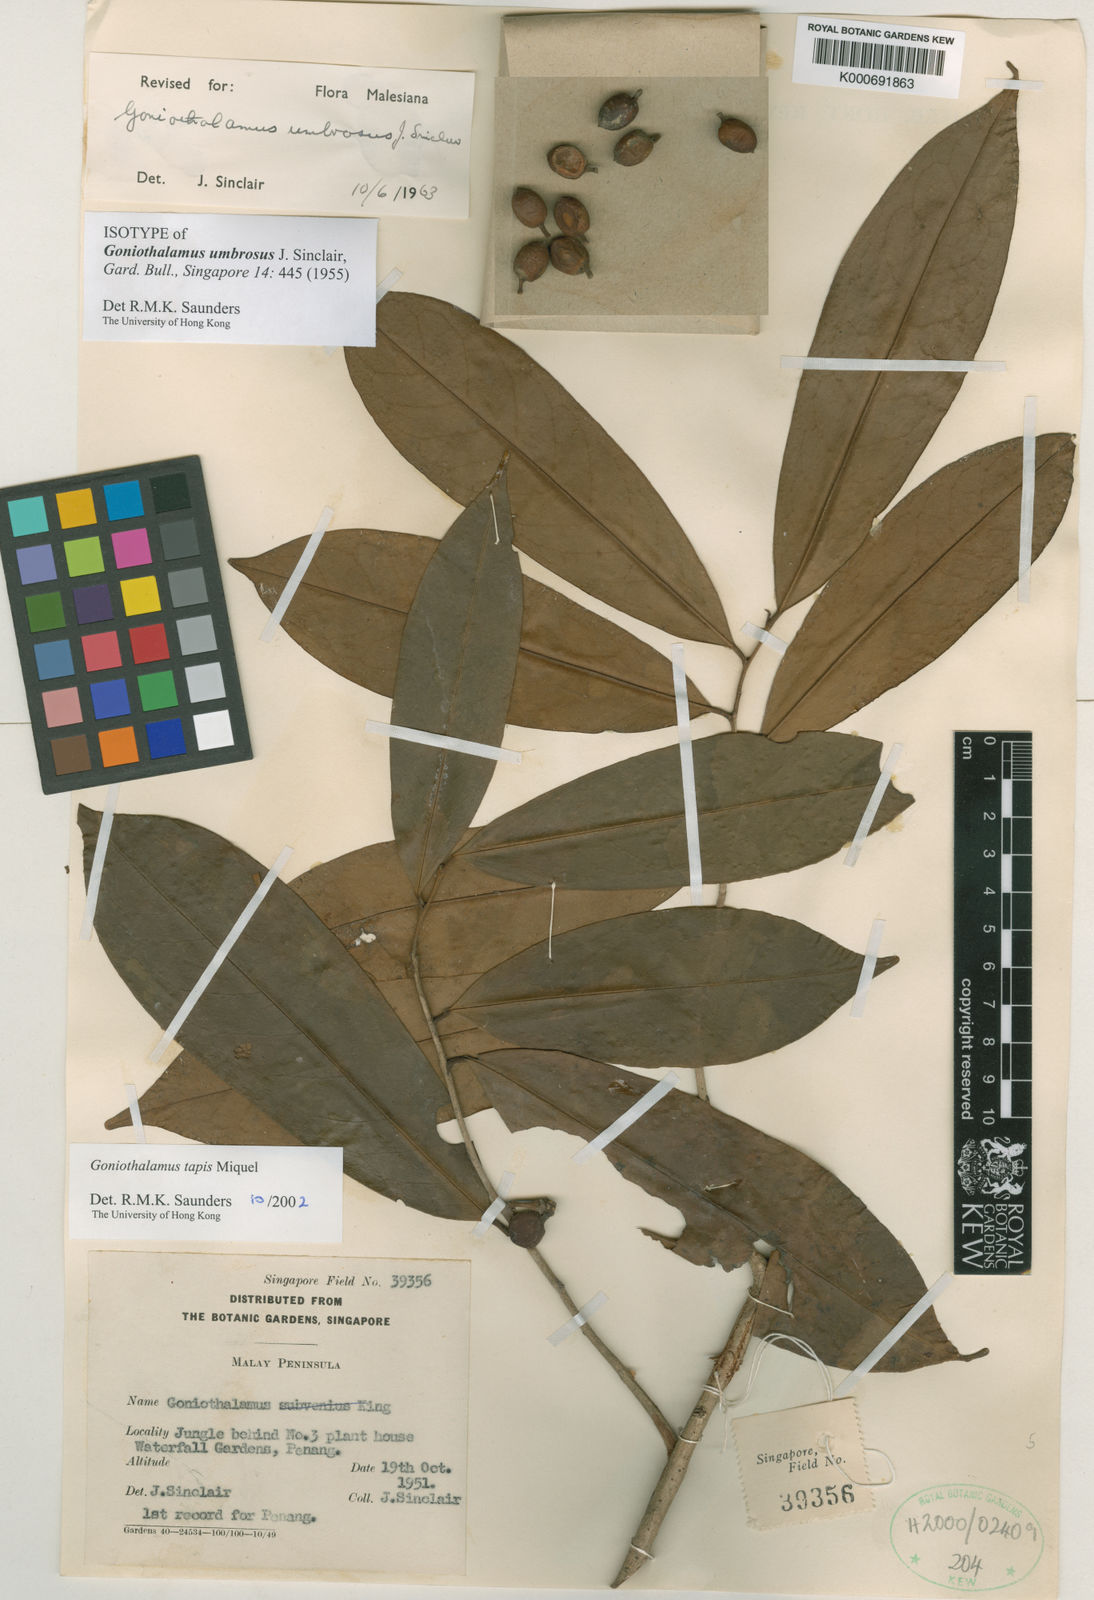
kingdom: Plantae
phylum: Tracheophyta
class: Magnoliopsida
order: Magnoliales
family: Annonaceae
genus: Goniothalamus
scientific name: Goniothalamus tapis
